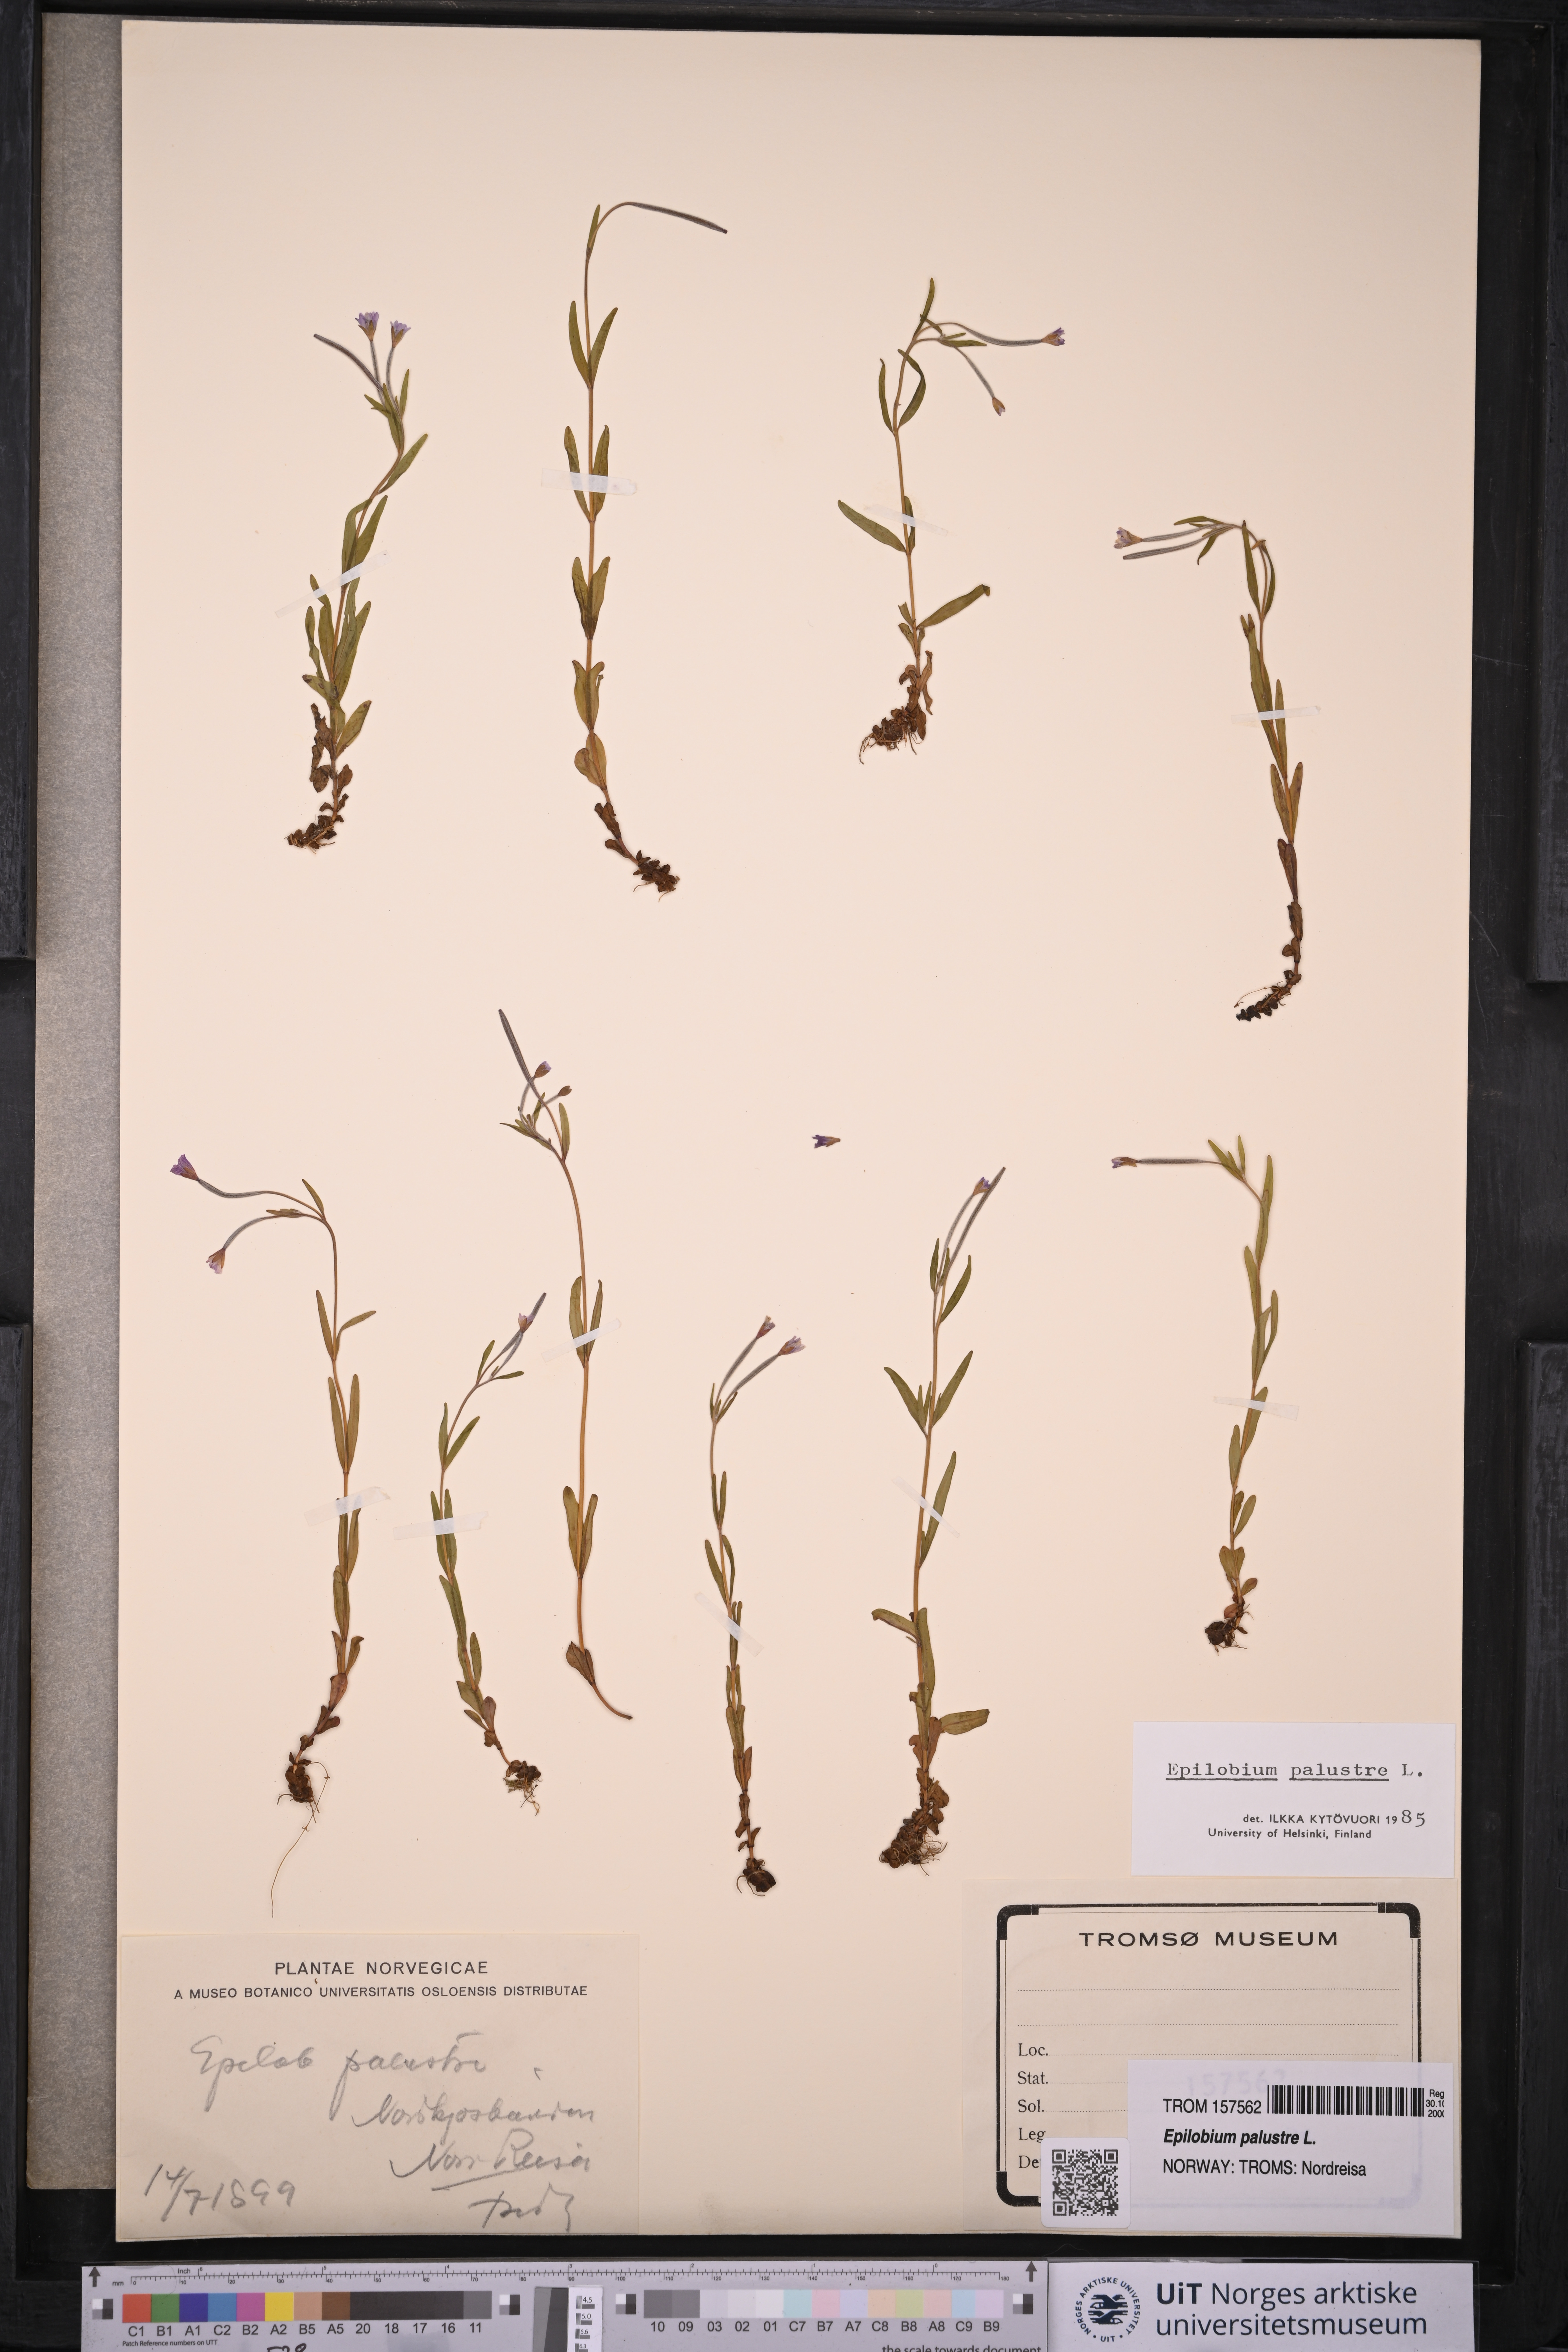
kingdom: Plantae
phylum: Tracheophyta
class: Magnoliopsida
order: Myrtales
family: Onagraceae
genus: Epilobium
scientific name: Epilobium palustre
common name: Marsh willowherb
